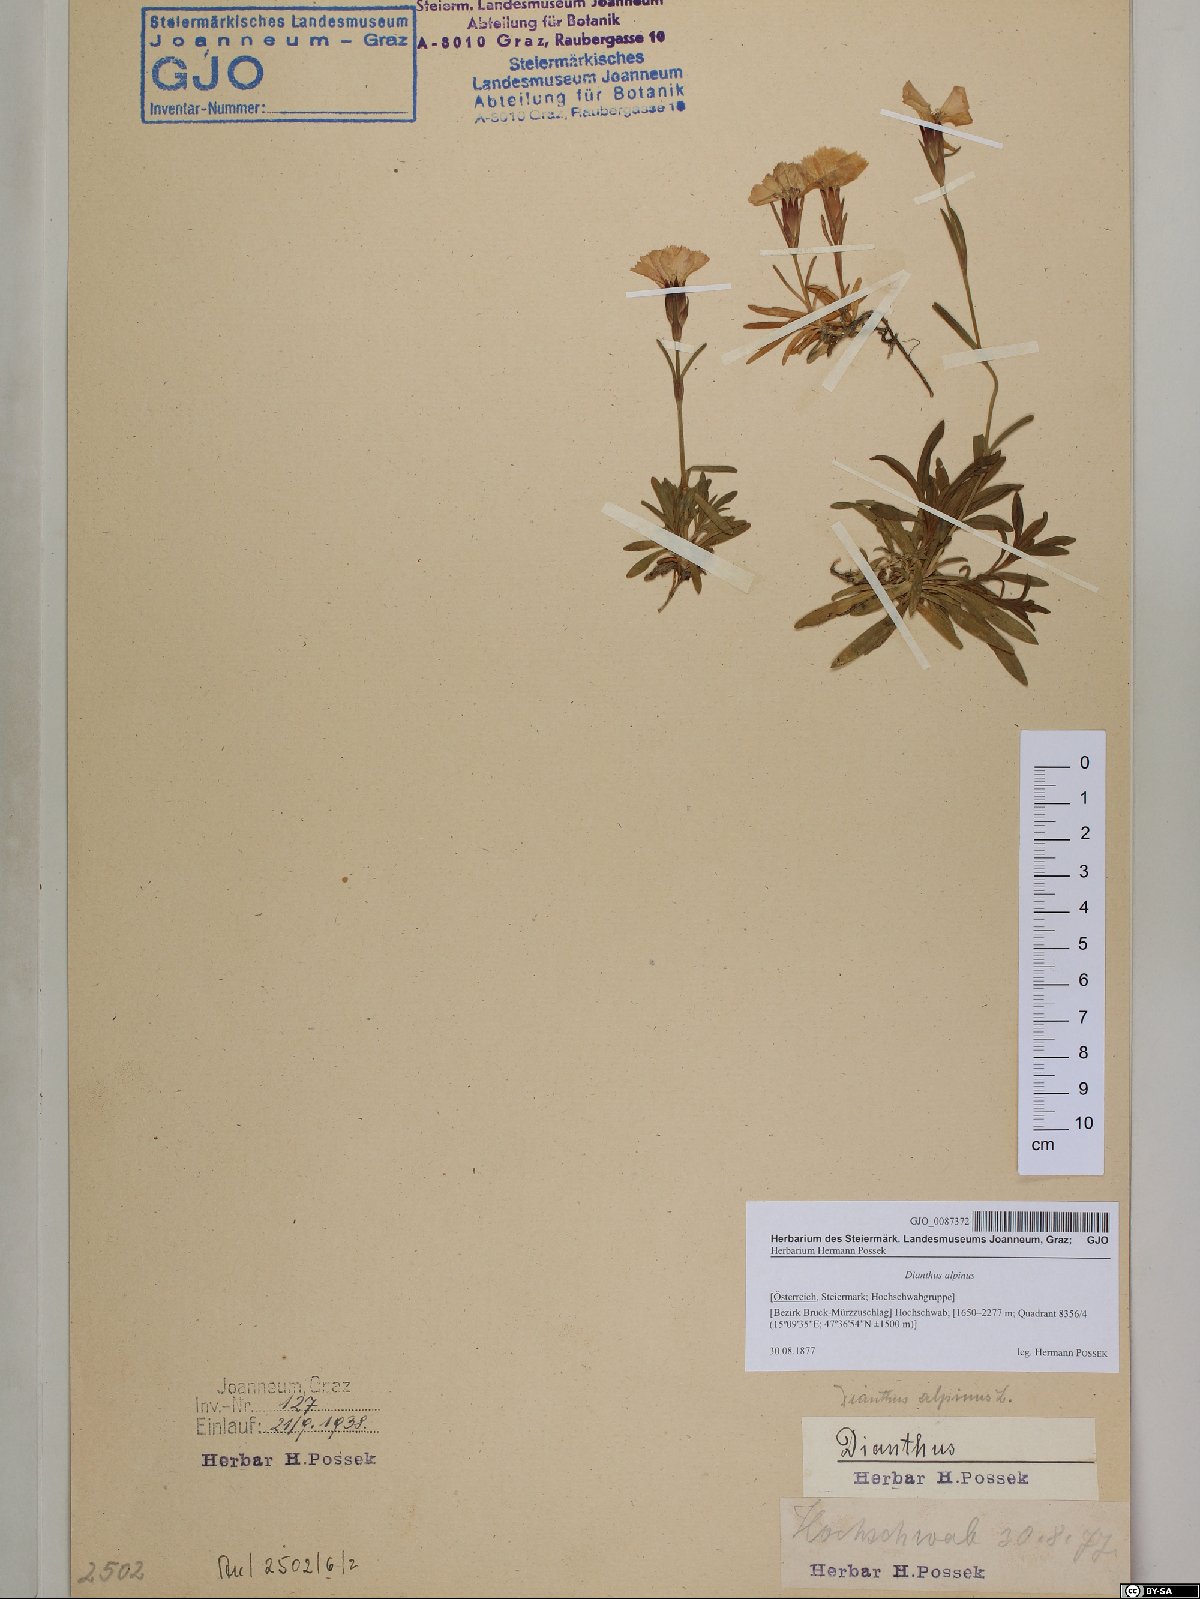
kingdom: Plantae
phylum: Tracheophyta
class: Magnoliopsida
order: Caryophyllales
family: Caryophyllaceae
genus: Dianthus
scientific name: Dianthus alpinus
